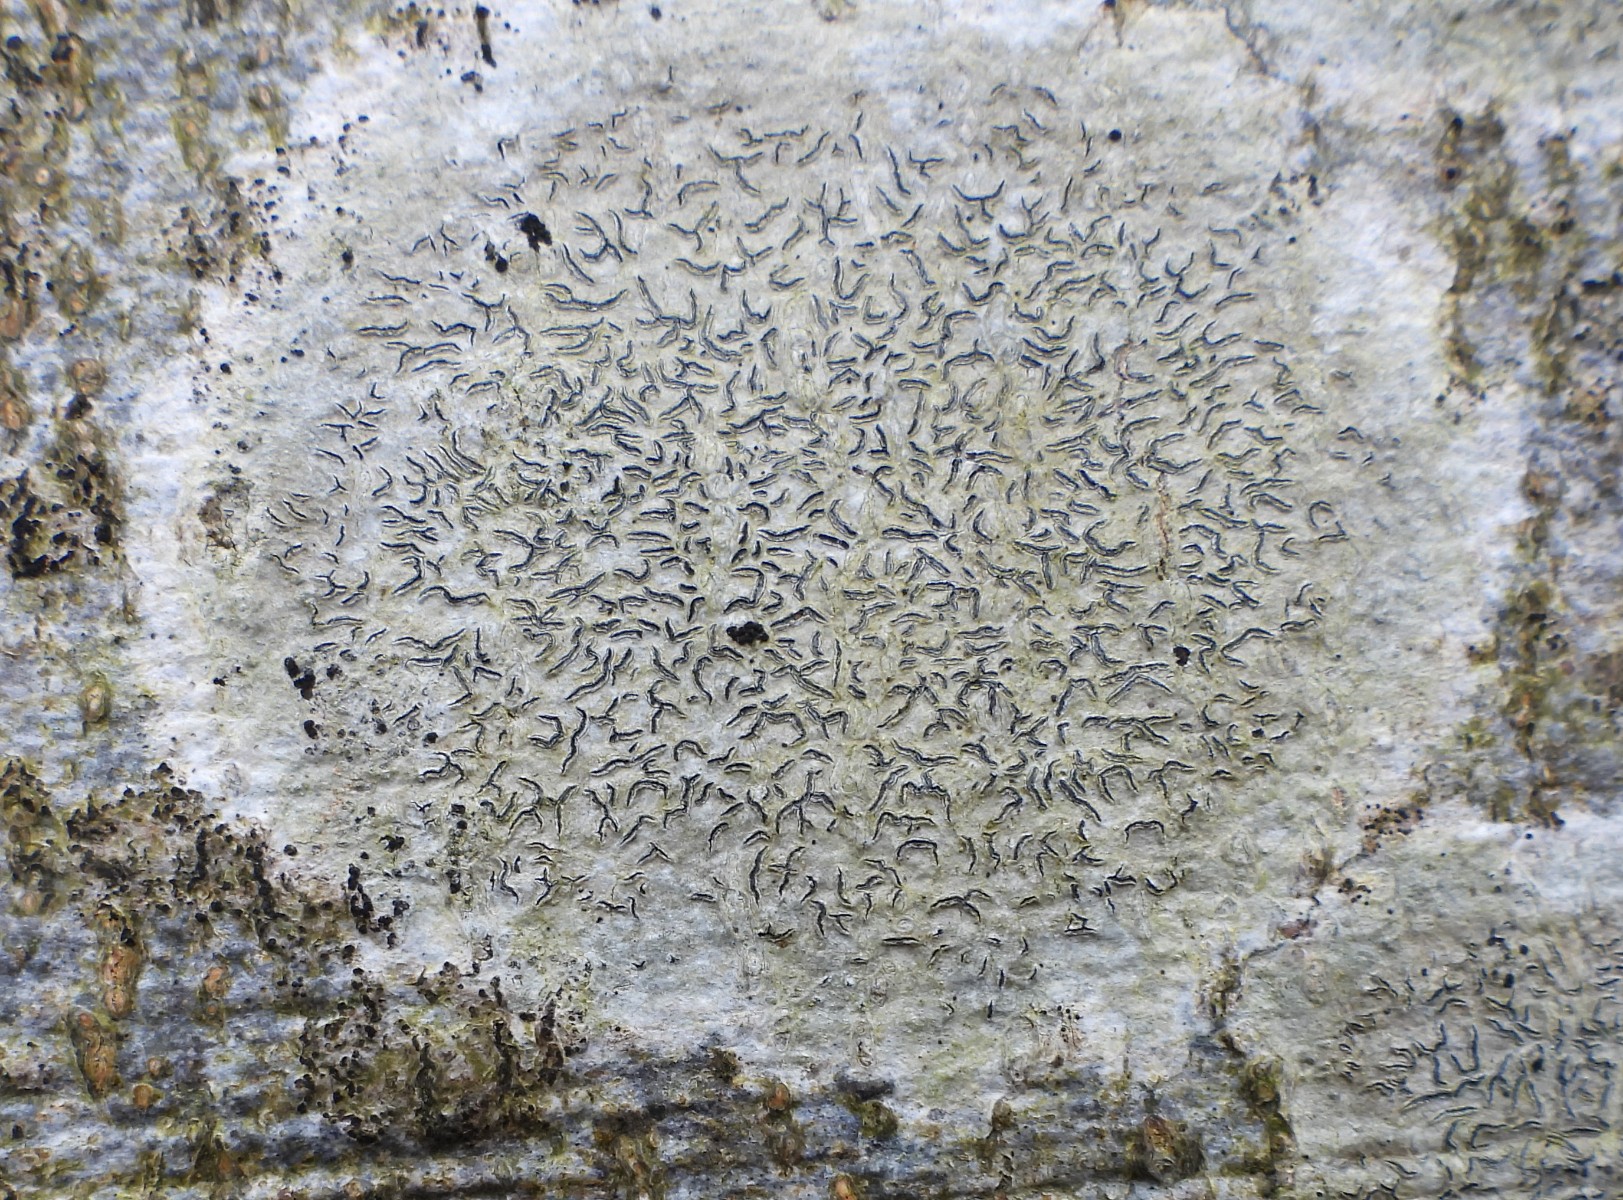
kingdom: Fungi
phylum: Ascomycota
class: Lecanoromycetes
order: Ostropales
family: Graphidaceae
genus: Graphis
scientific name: Graphis scripta
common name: almindelig skriftlav
